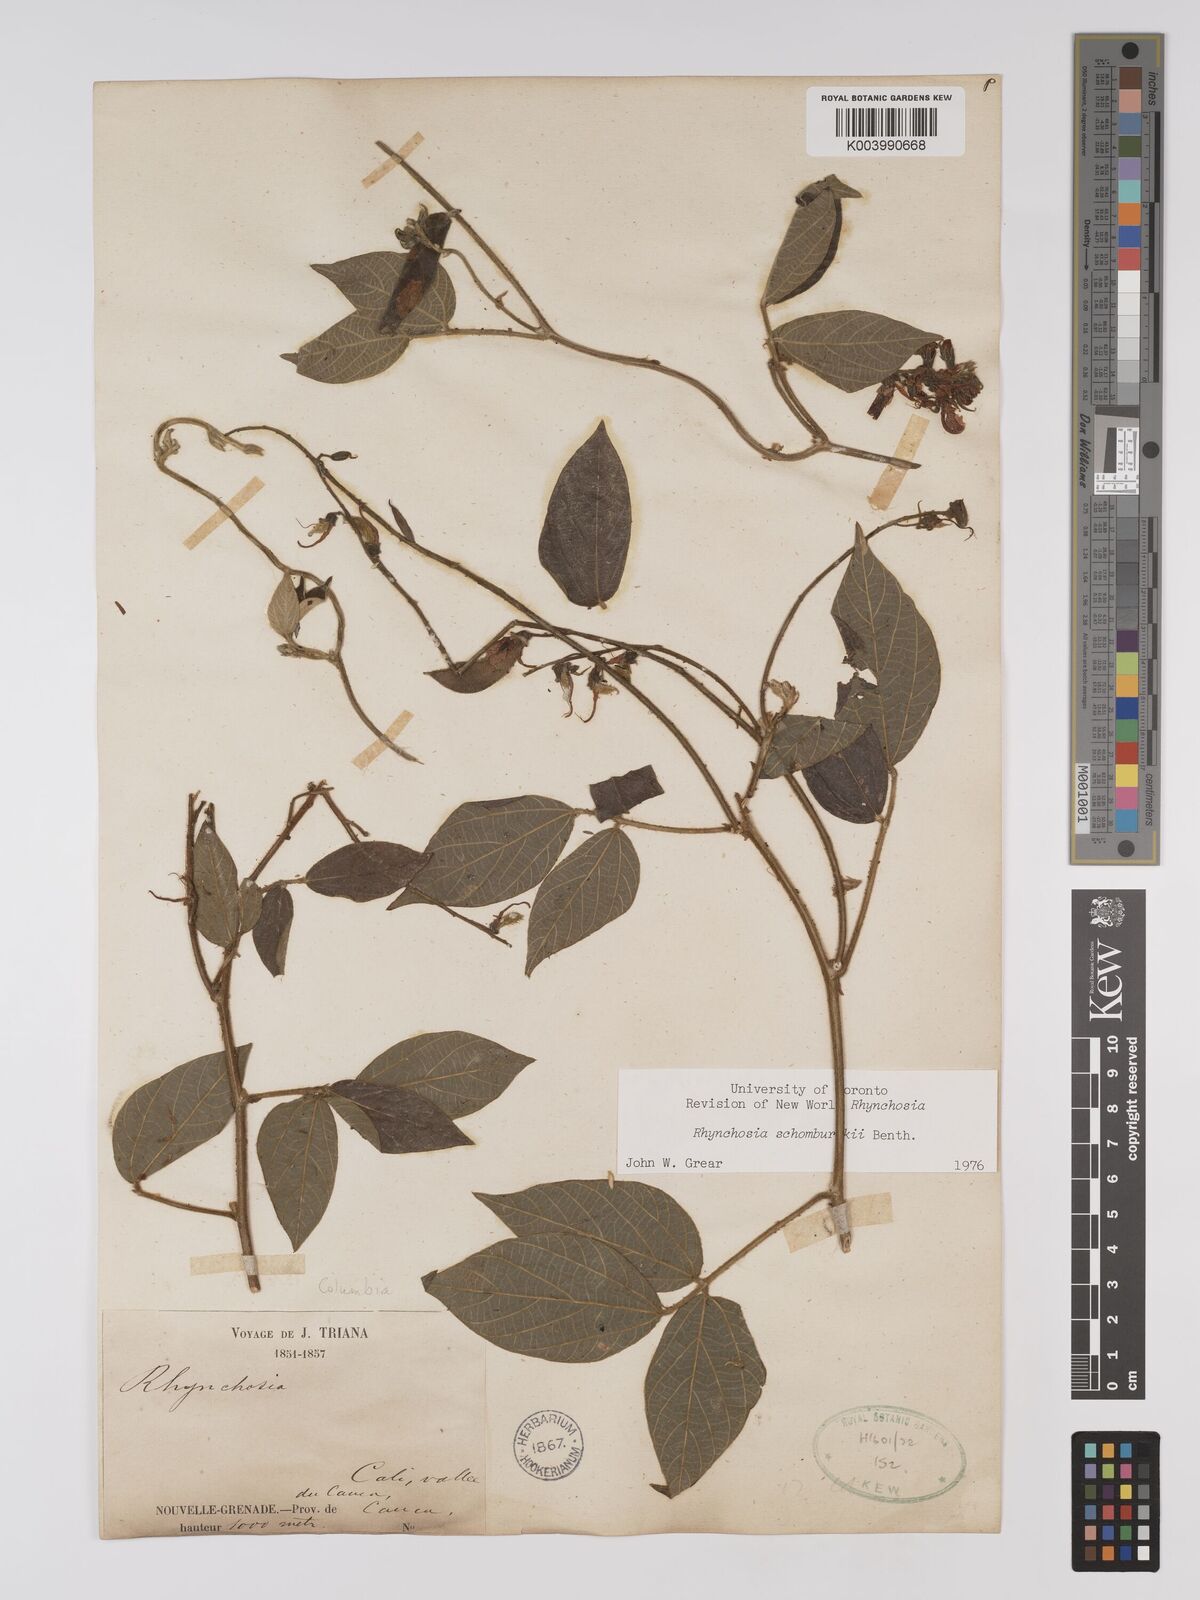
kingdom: Plantae
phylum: Tracheophyta
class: Magnoliopsida
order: Fabales
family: Fabaceae
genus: Rhynchosia
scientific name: Rhynchosia schomburgkii
